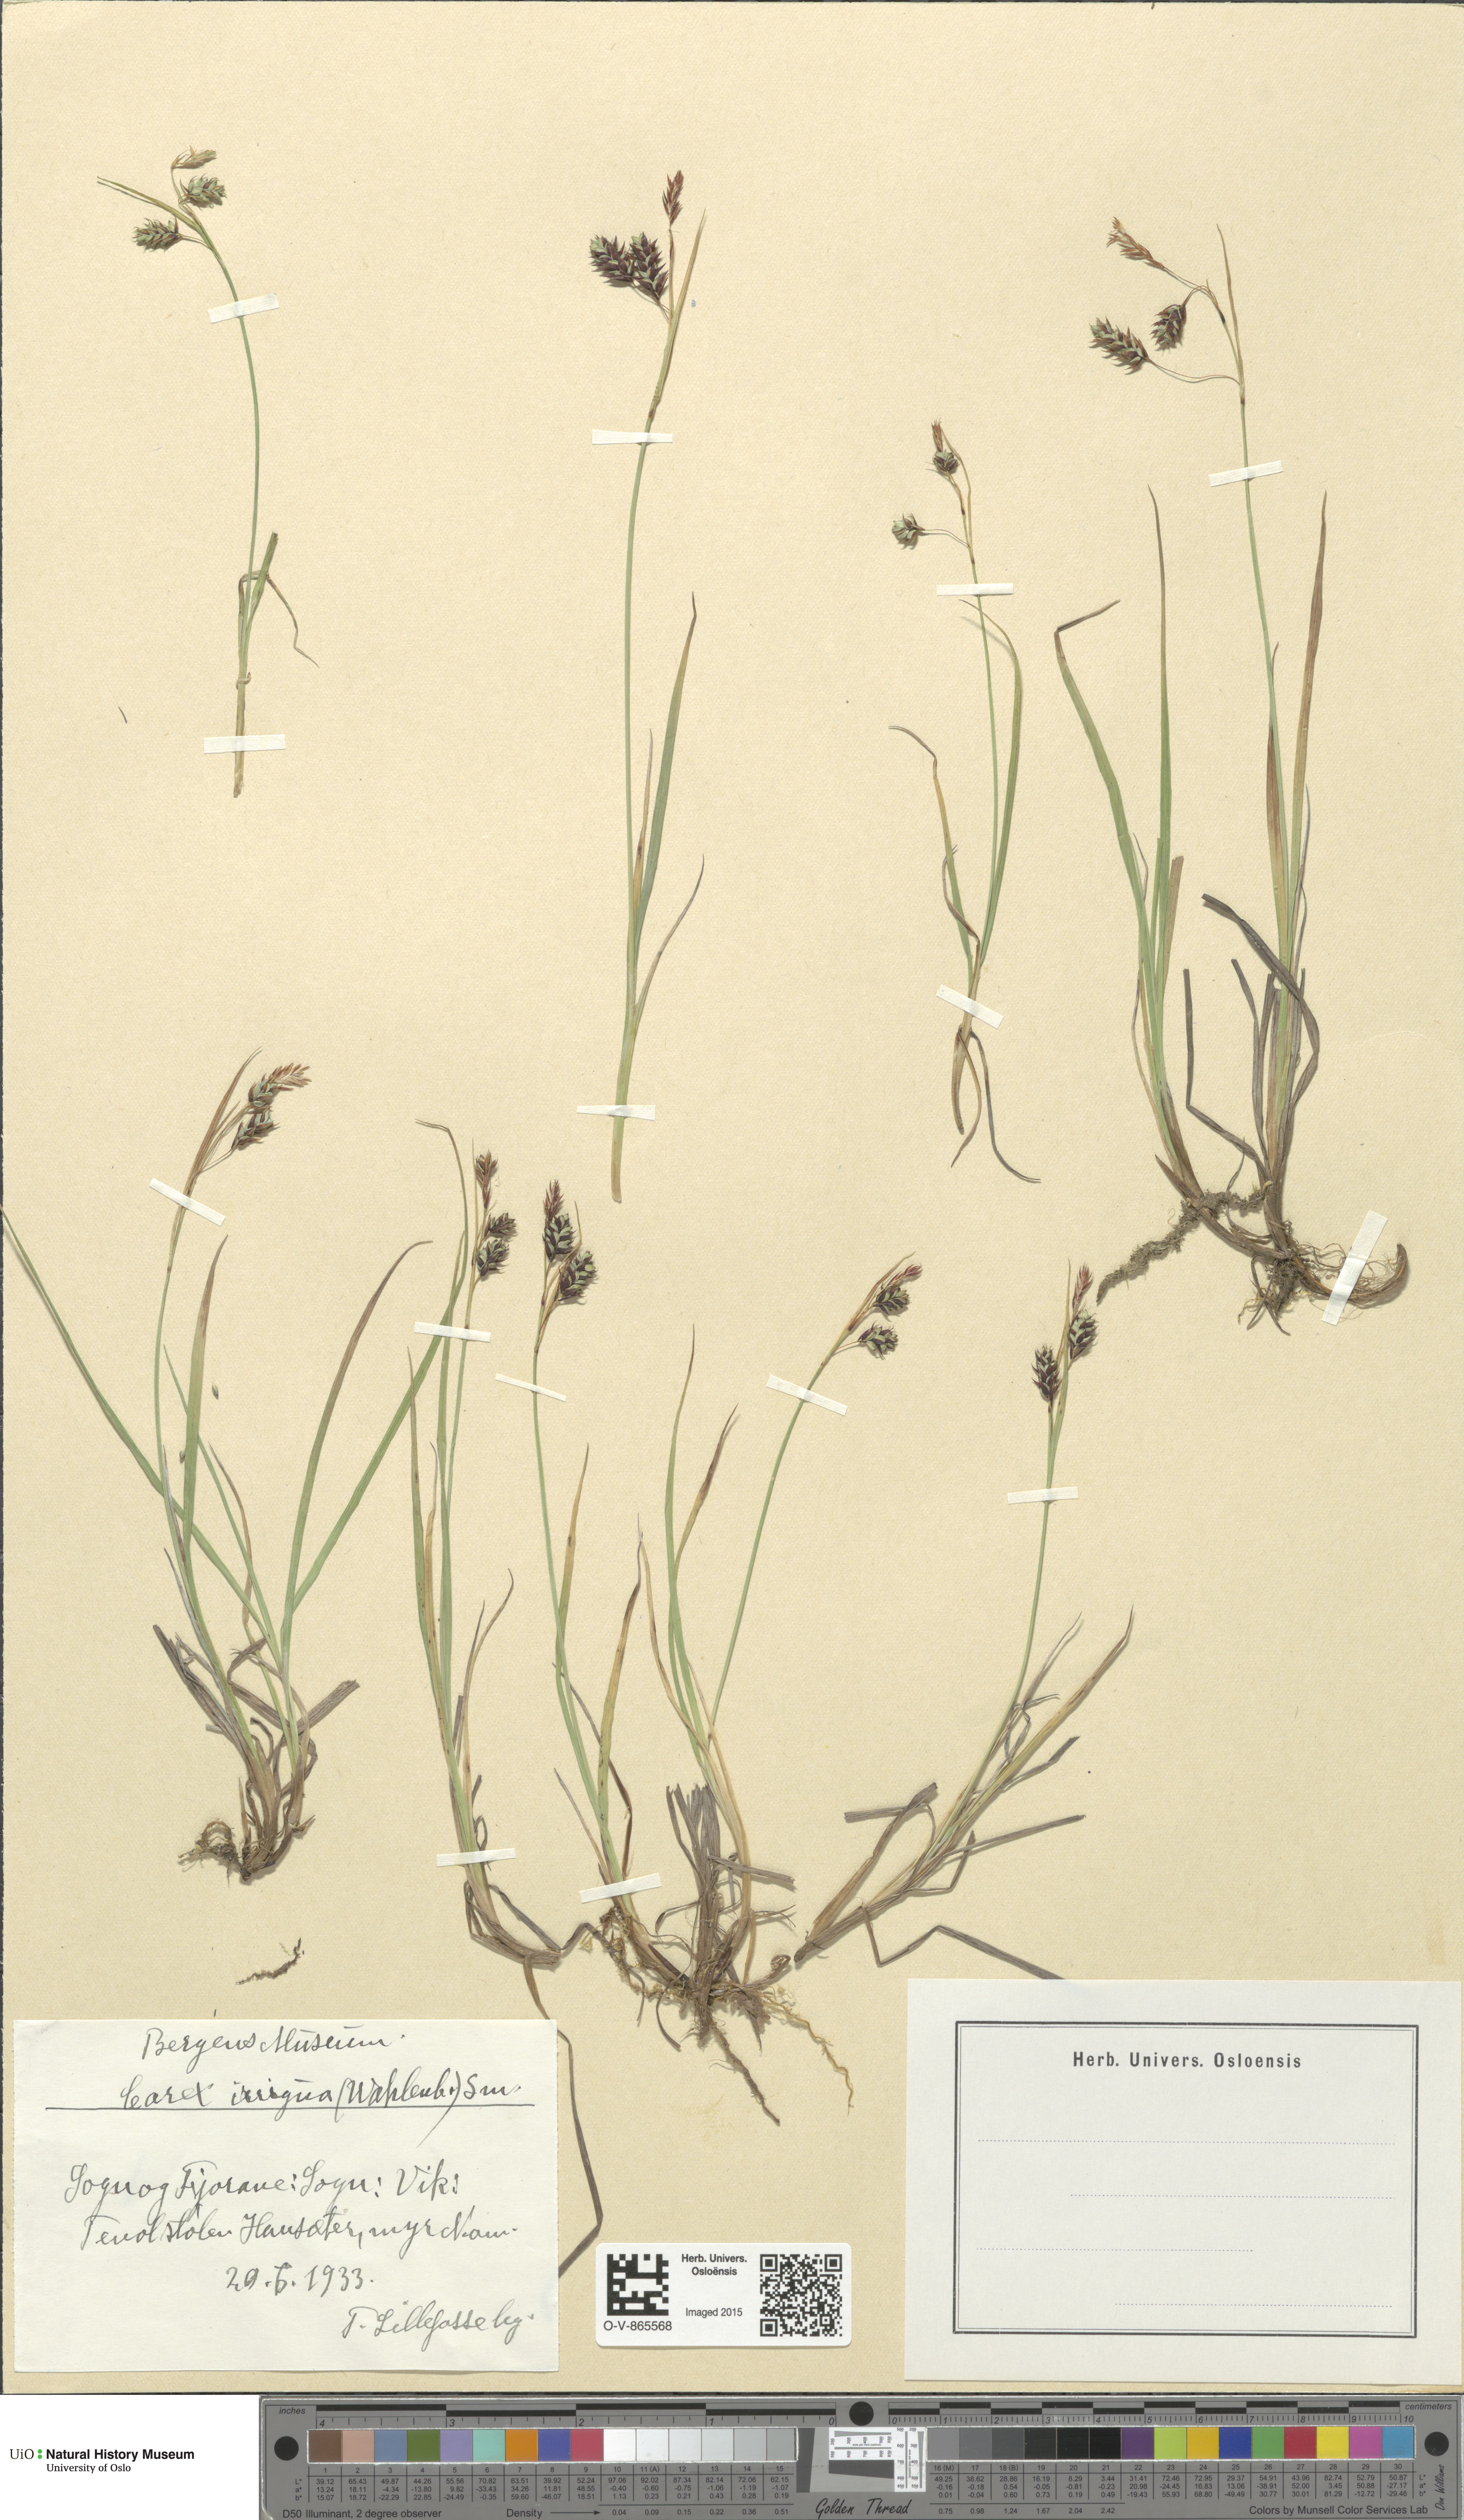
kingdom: Plantae
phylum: Tracheophyta
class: Liliopsida
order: Poales
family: Cyperaceae
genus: Carex
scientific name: Carex magellanica
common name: Bog sedge
